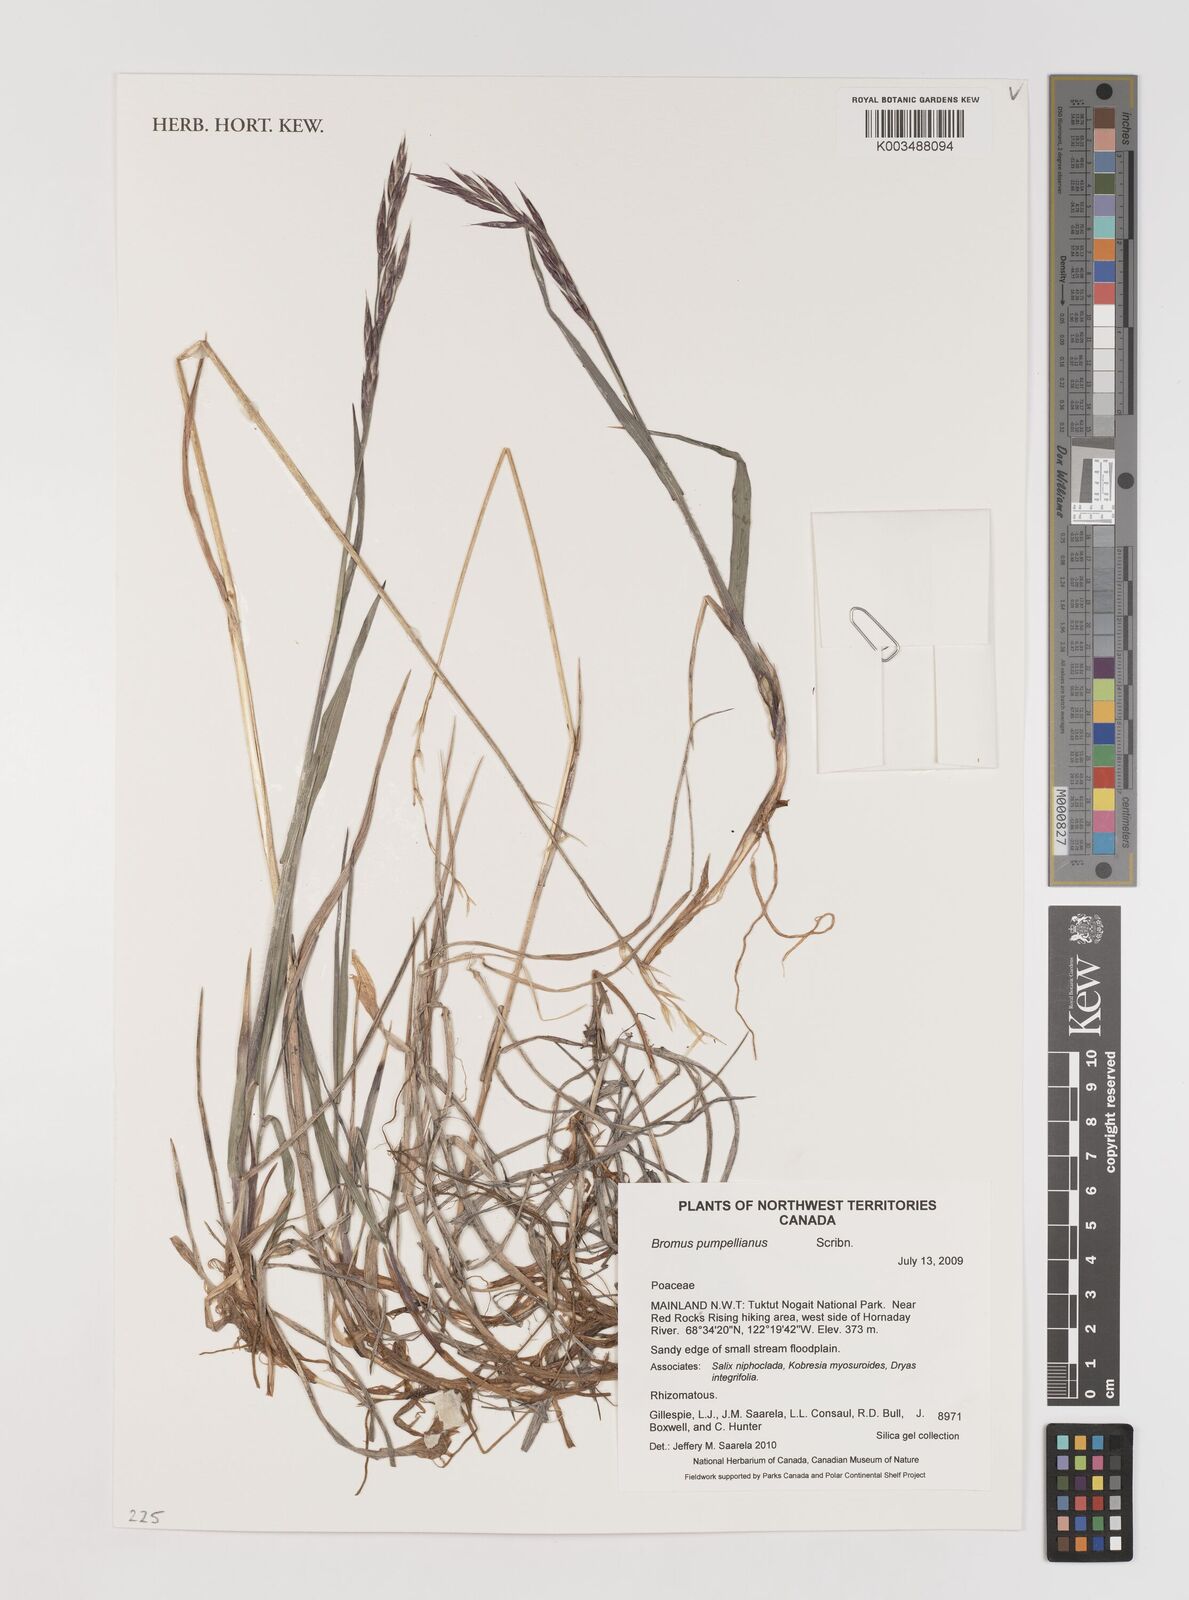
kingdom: Plantae
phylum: Tracheophyta
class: Liliopsida
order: Poales
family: Poaceae
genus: Bromus
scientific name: Bromus pumpellianus
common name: Pumpelly's brome
